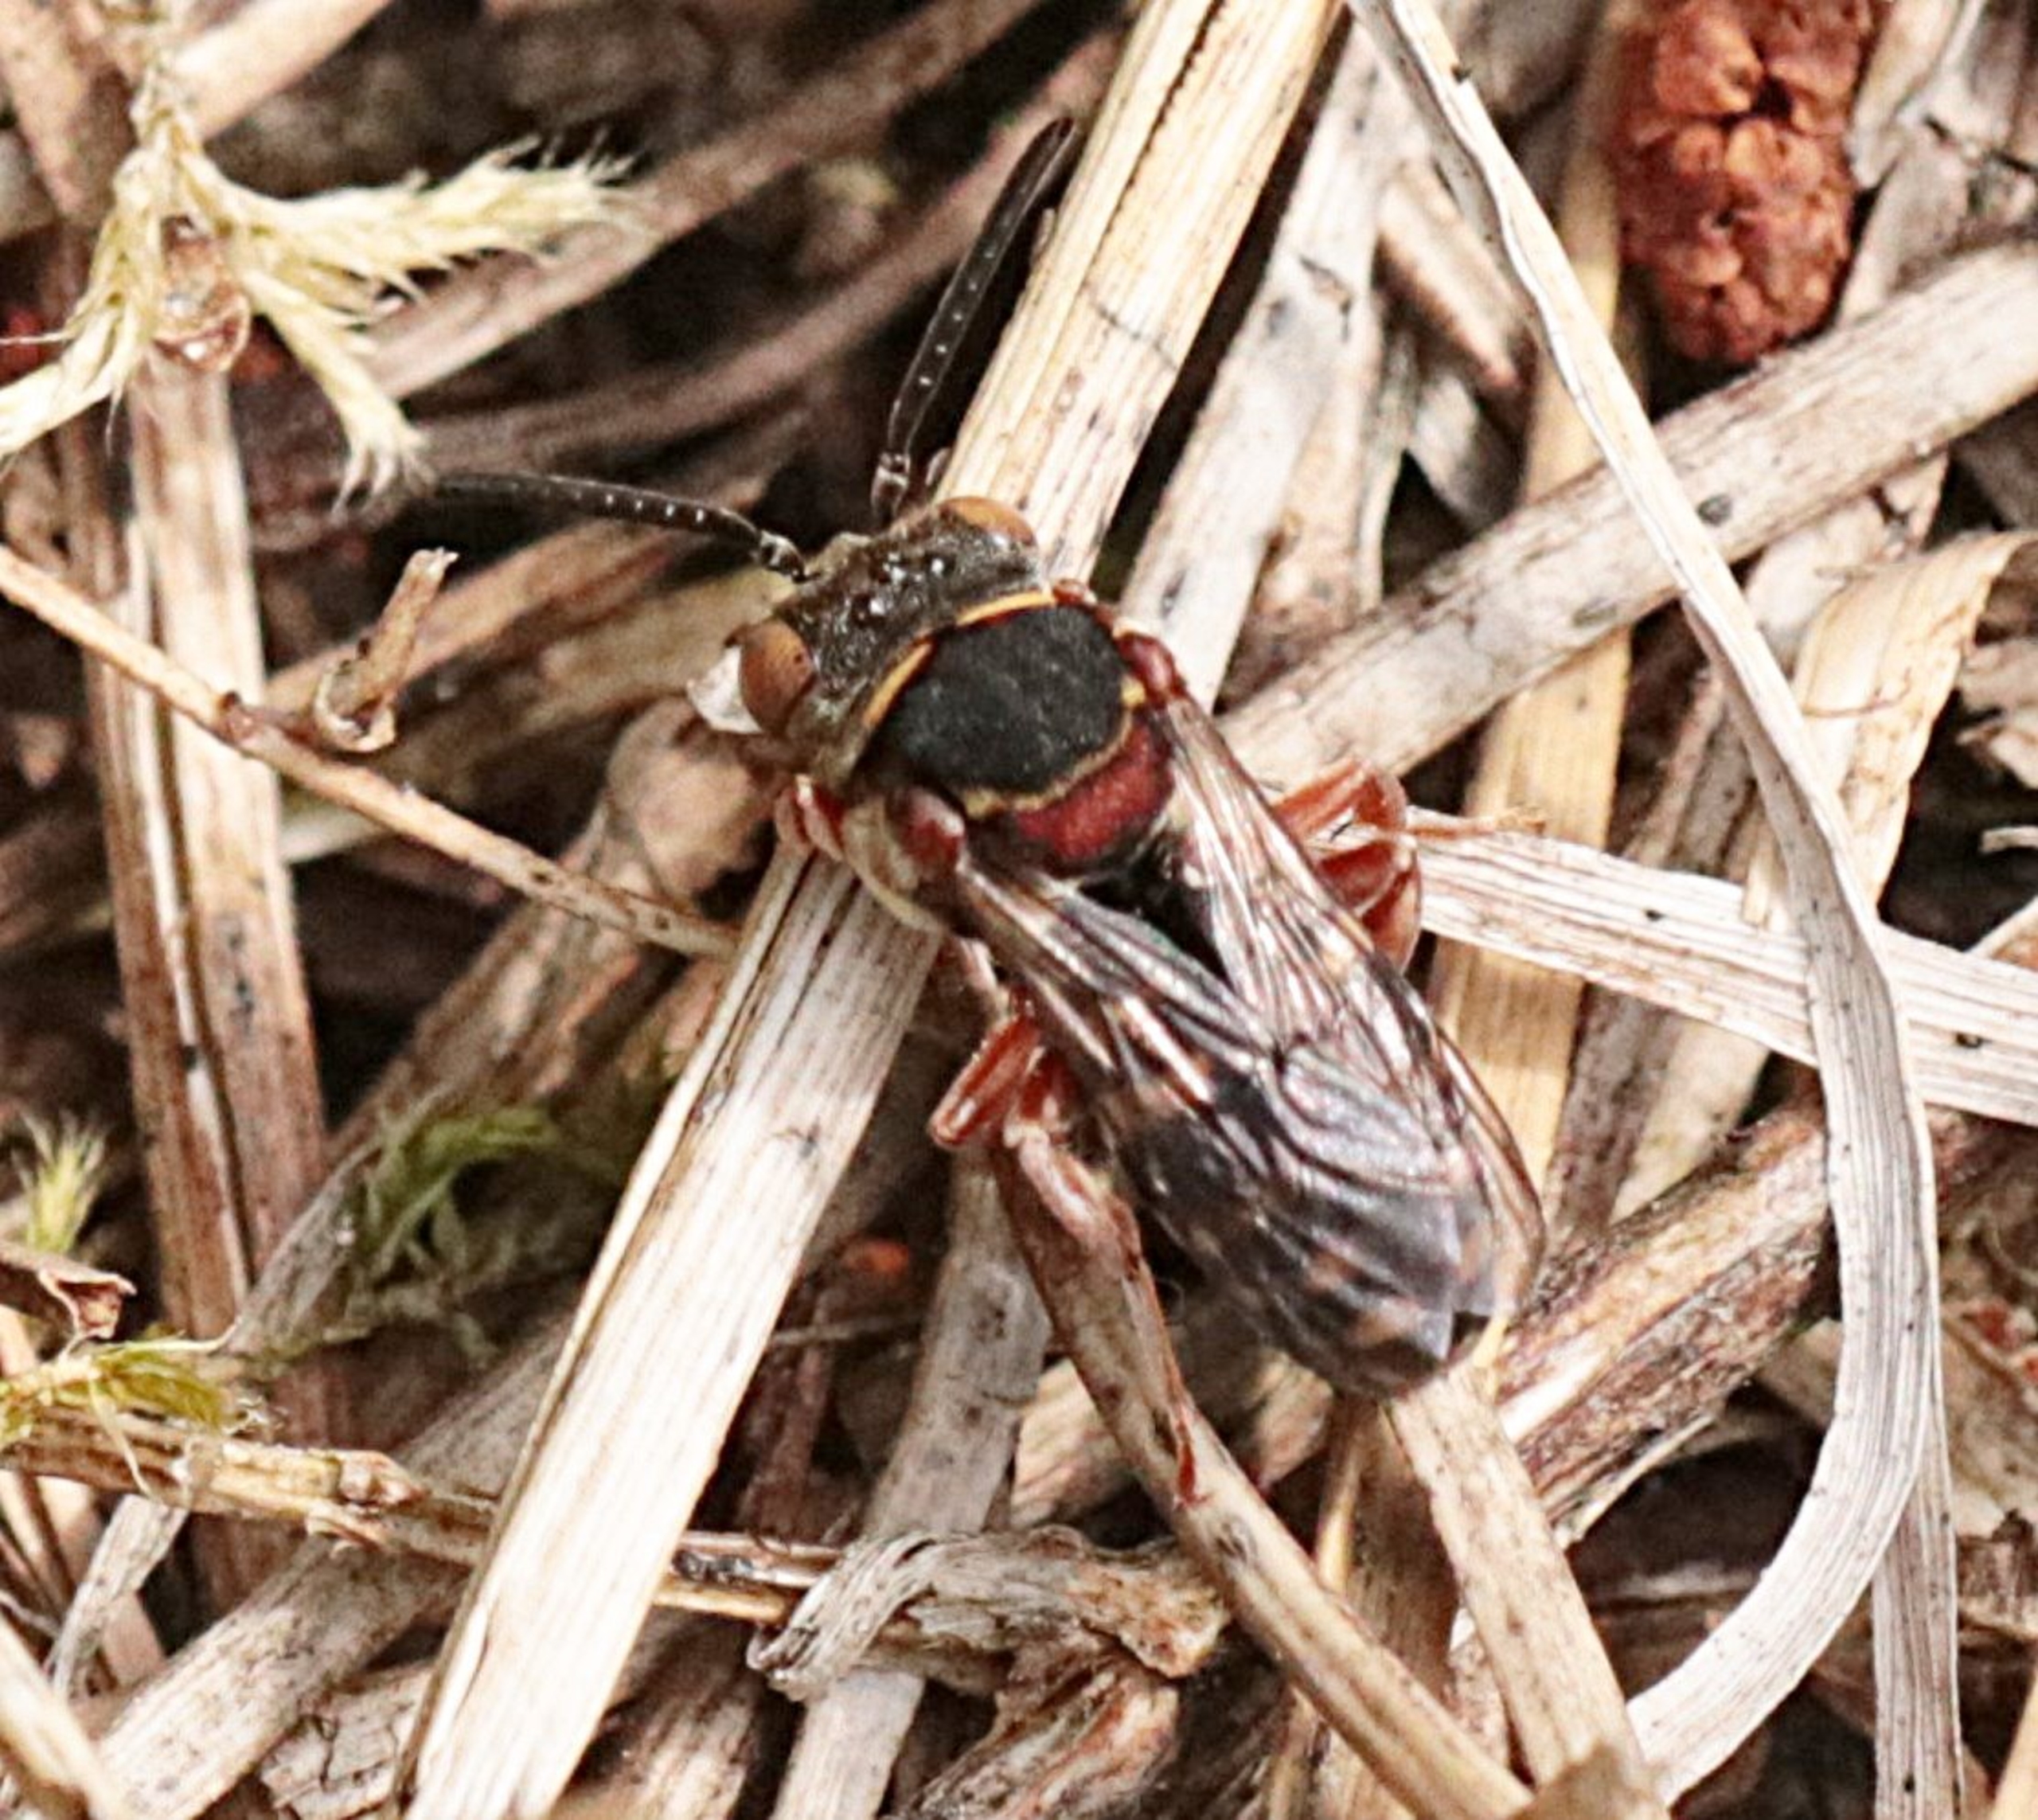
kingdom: Animalia
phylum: Arthropoda
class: Insecta
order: Hymenoptera
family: Apidae
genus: Epeolus
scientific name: Epeolus
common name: Filtbier
